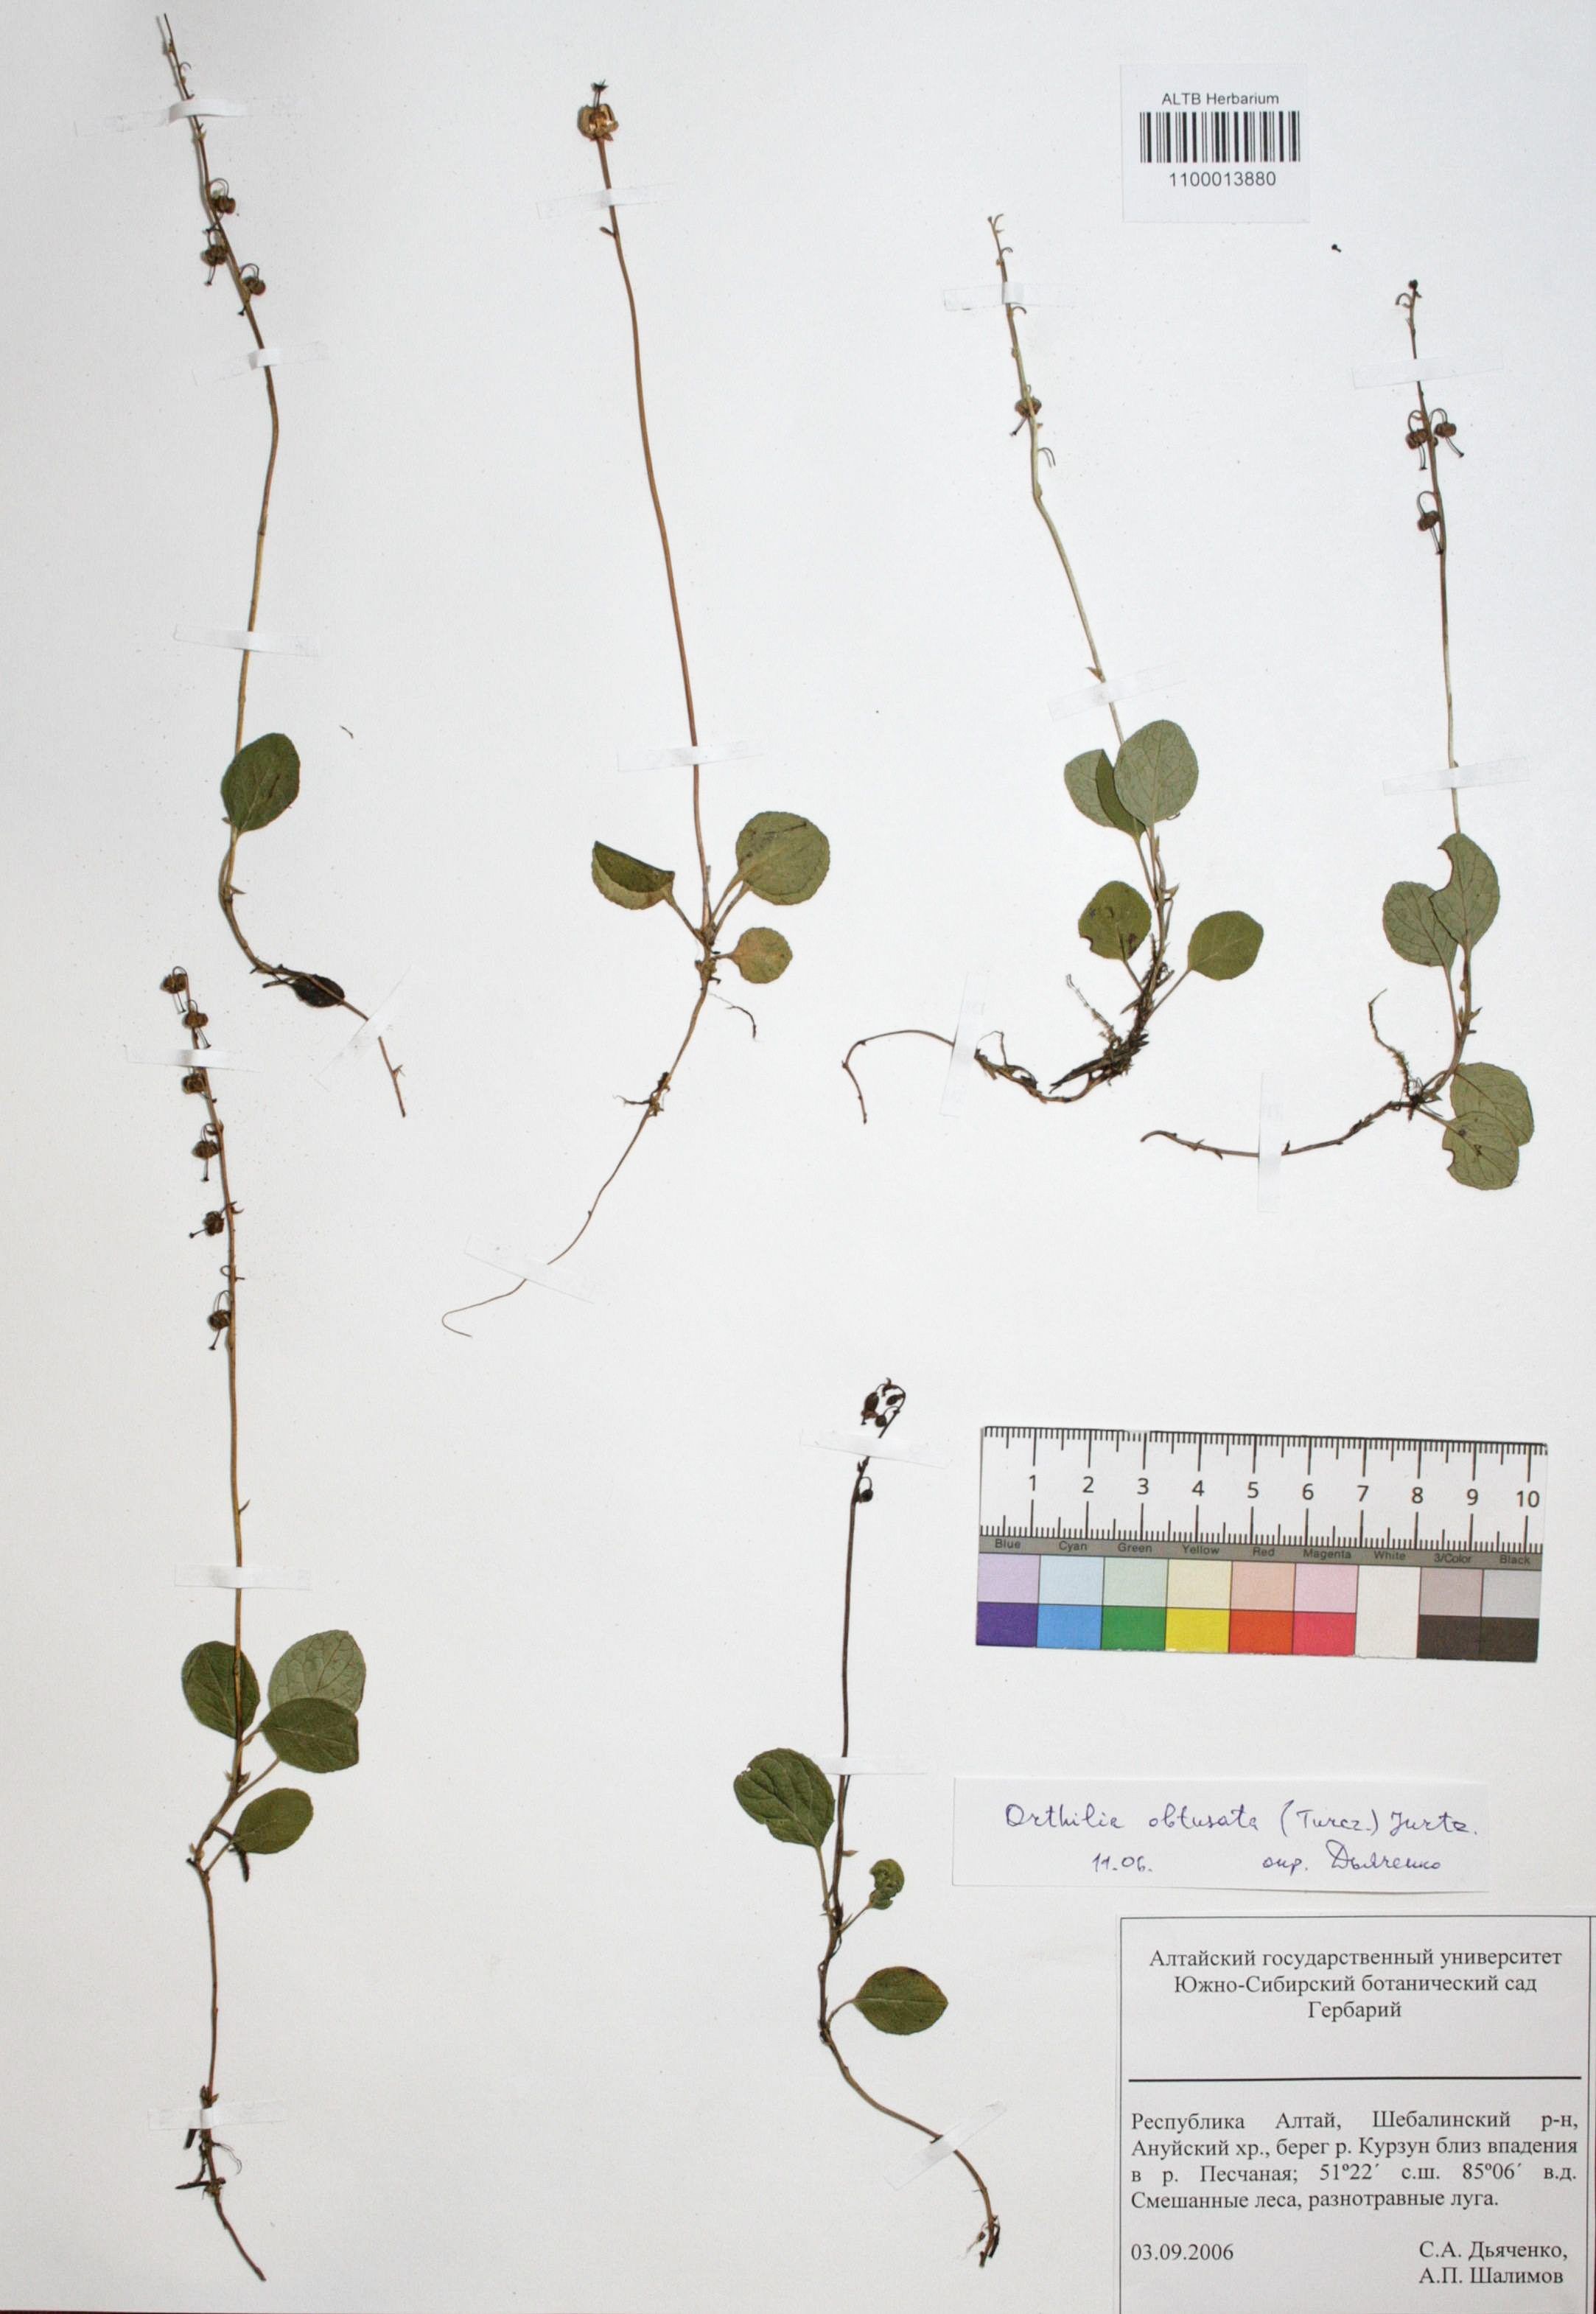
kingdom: Plantae
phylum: Tracheophyta
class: Magnoliopsida
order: Ericales
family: Ericaceae
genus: Orthilia
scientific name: Orthilia secunda
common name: One-sided orthilia
